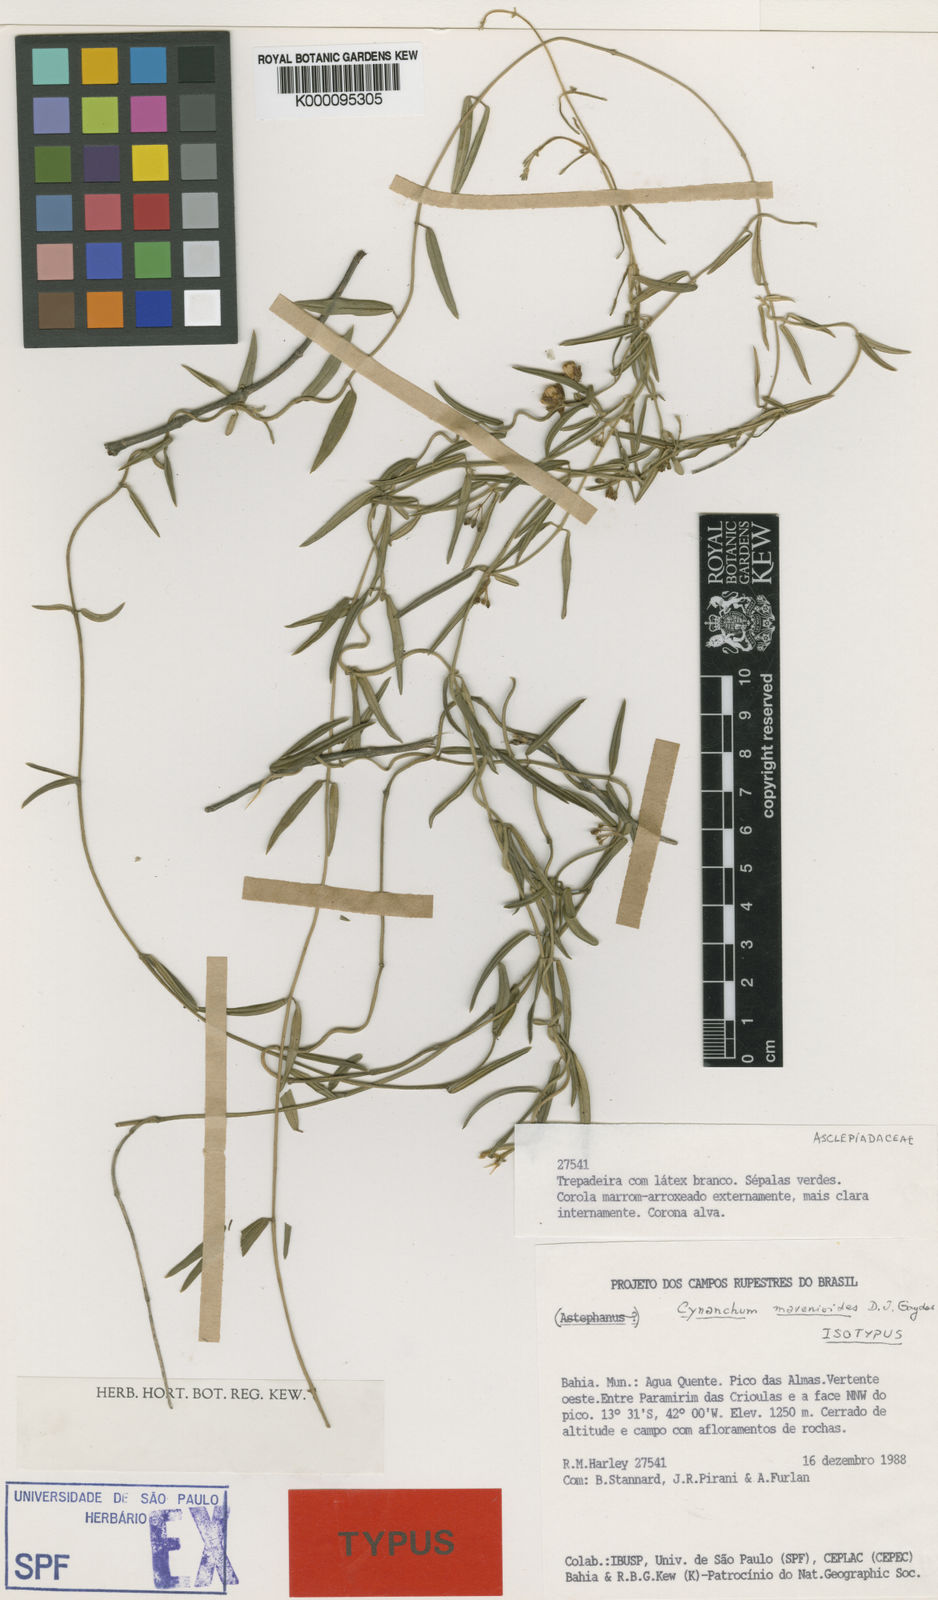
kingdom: Plantae
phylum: Tracheophyta
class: Magnoliopsida
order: Gentianales
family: Apocynaceae
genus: Monsanima
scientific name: Monsanima morrenioides
